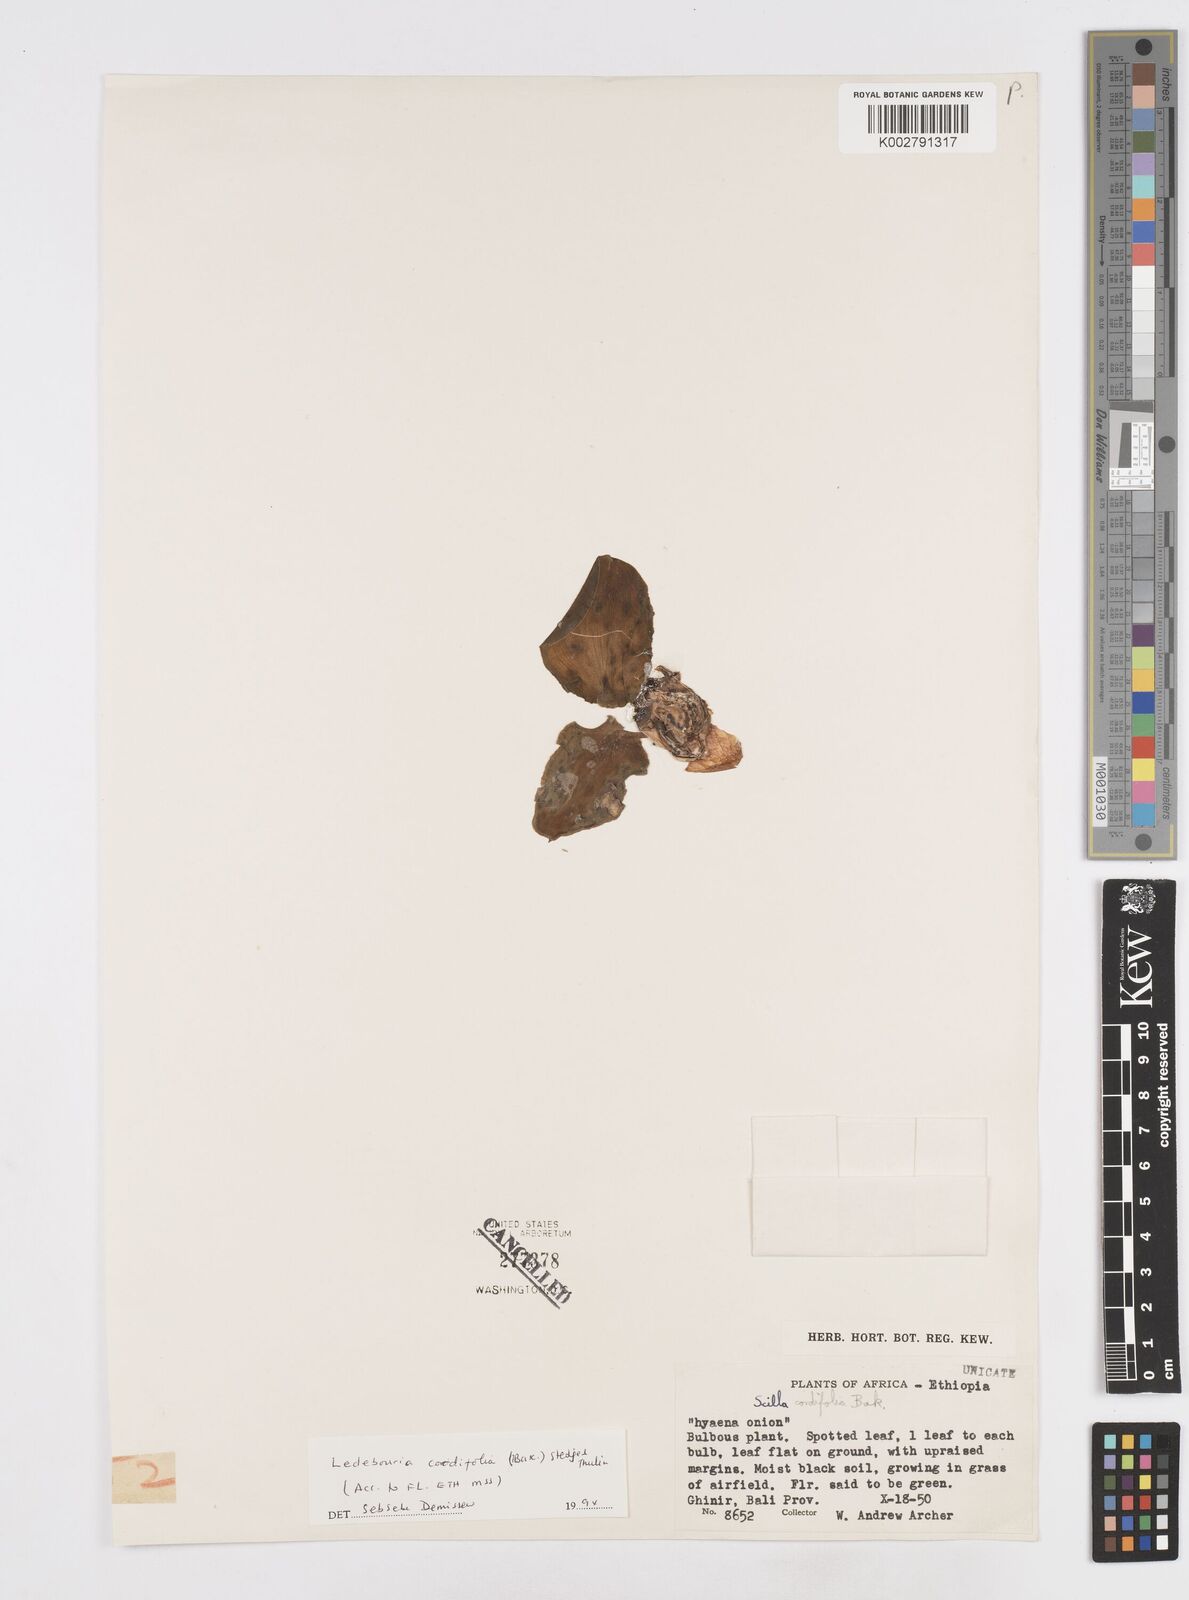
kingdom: Plantae
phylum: Tracheophyta
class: Liliopsida
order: Asparagales
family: Asparagaceae
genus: Ledebouria
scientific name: Ledebouria cordifolia
